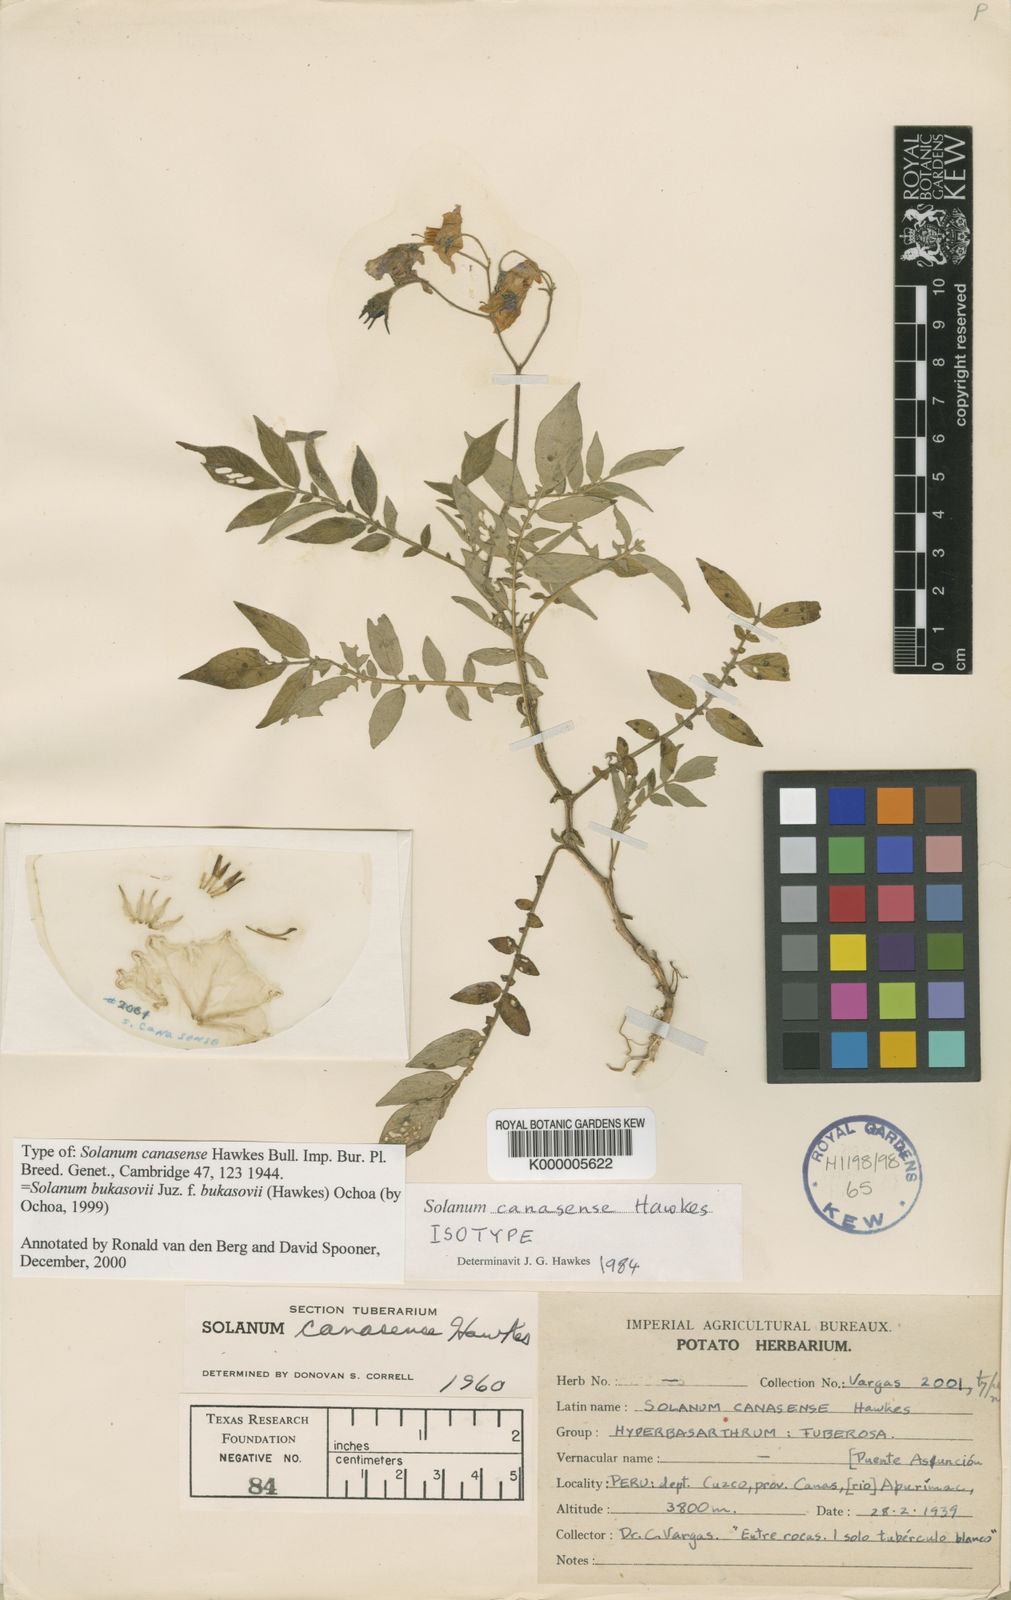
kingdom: Plantae
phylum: Tracheophyta
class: Magnoliopsida
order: Solanales
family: Solanaceae
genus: Solanum
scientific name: Solanum candolleanum
